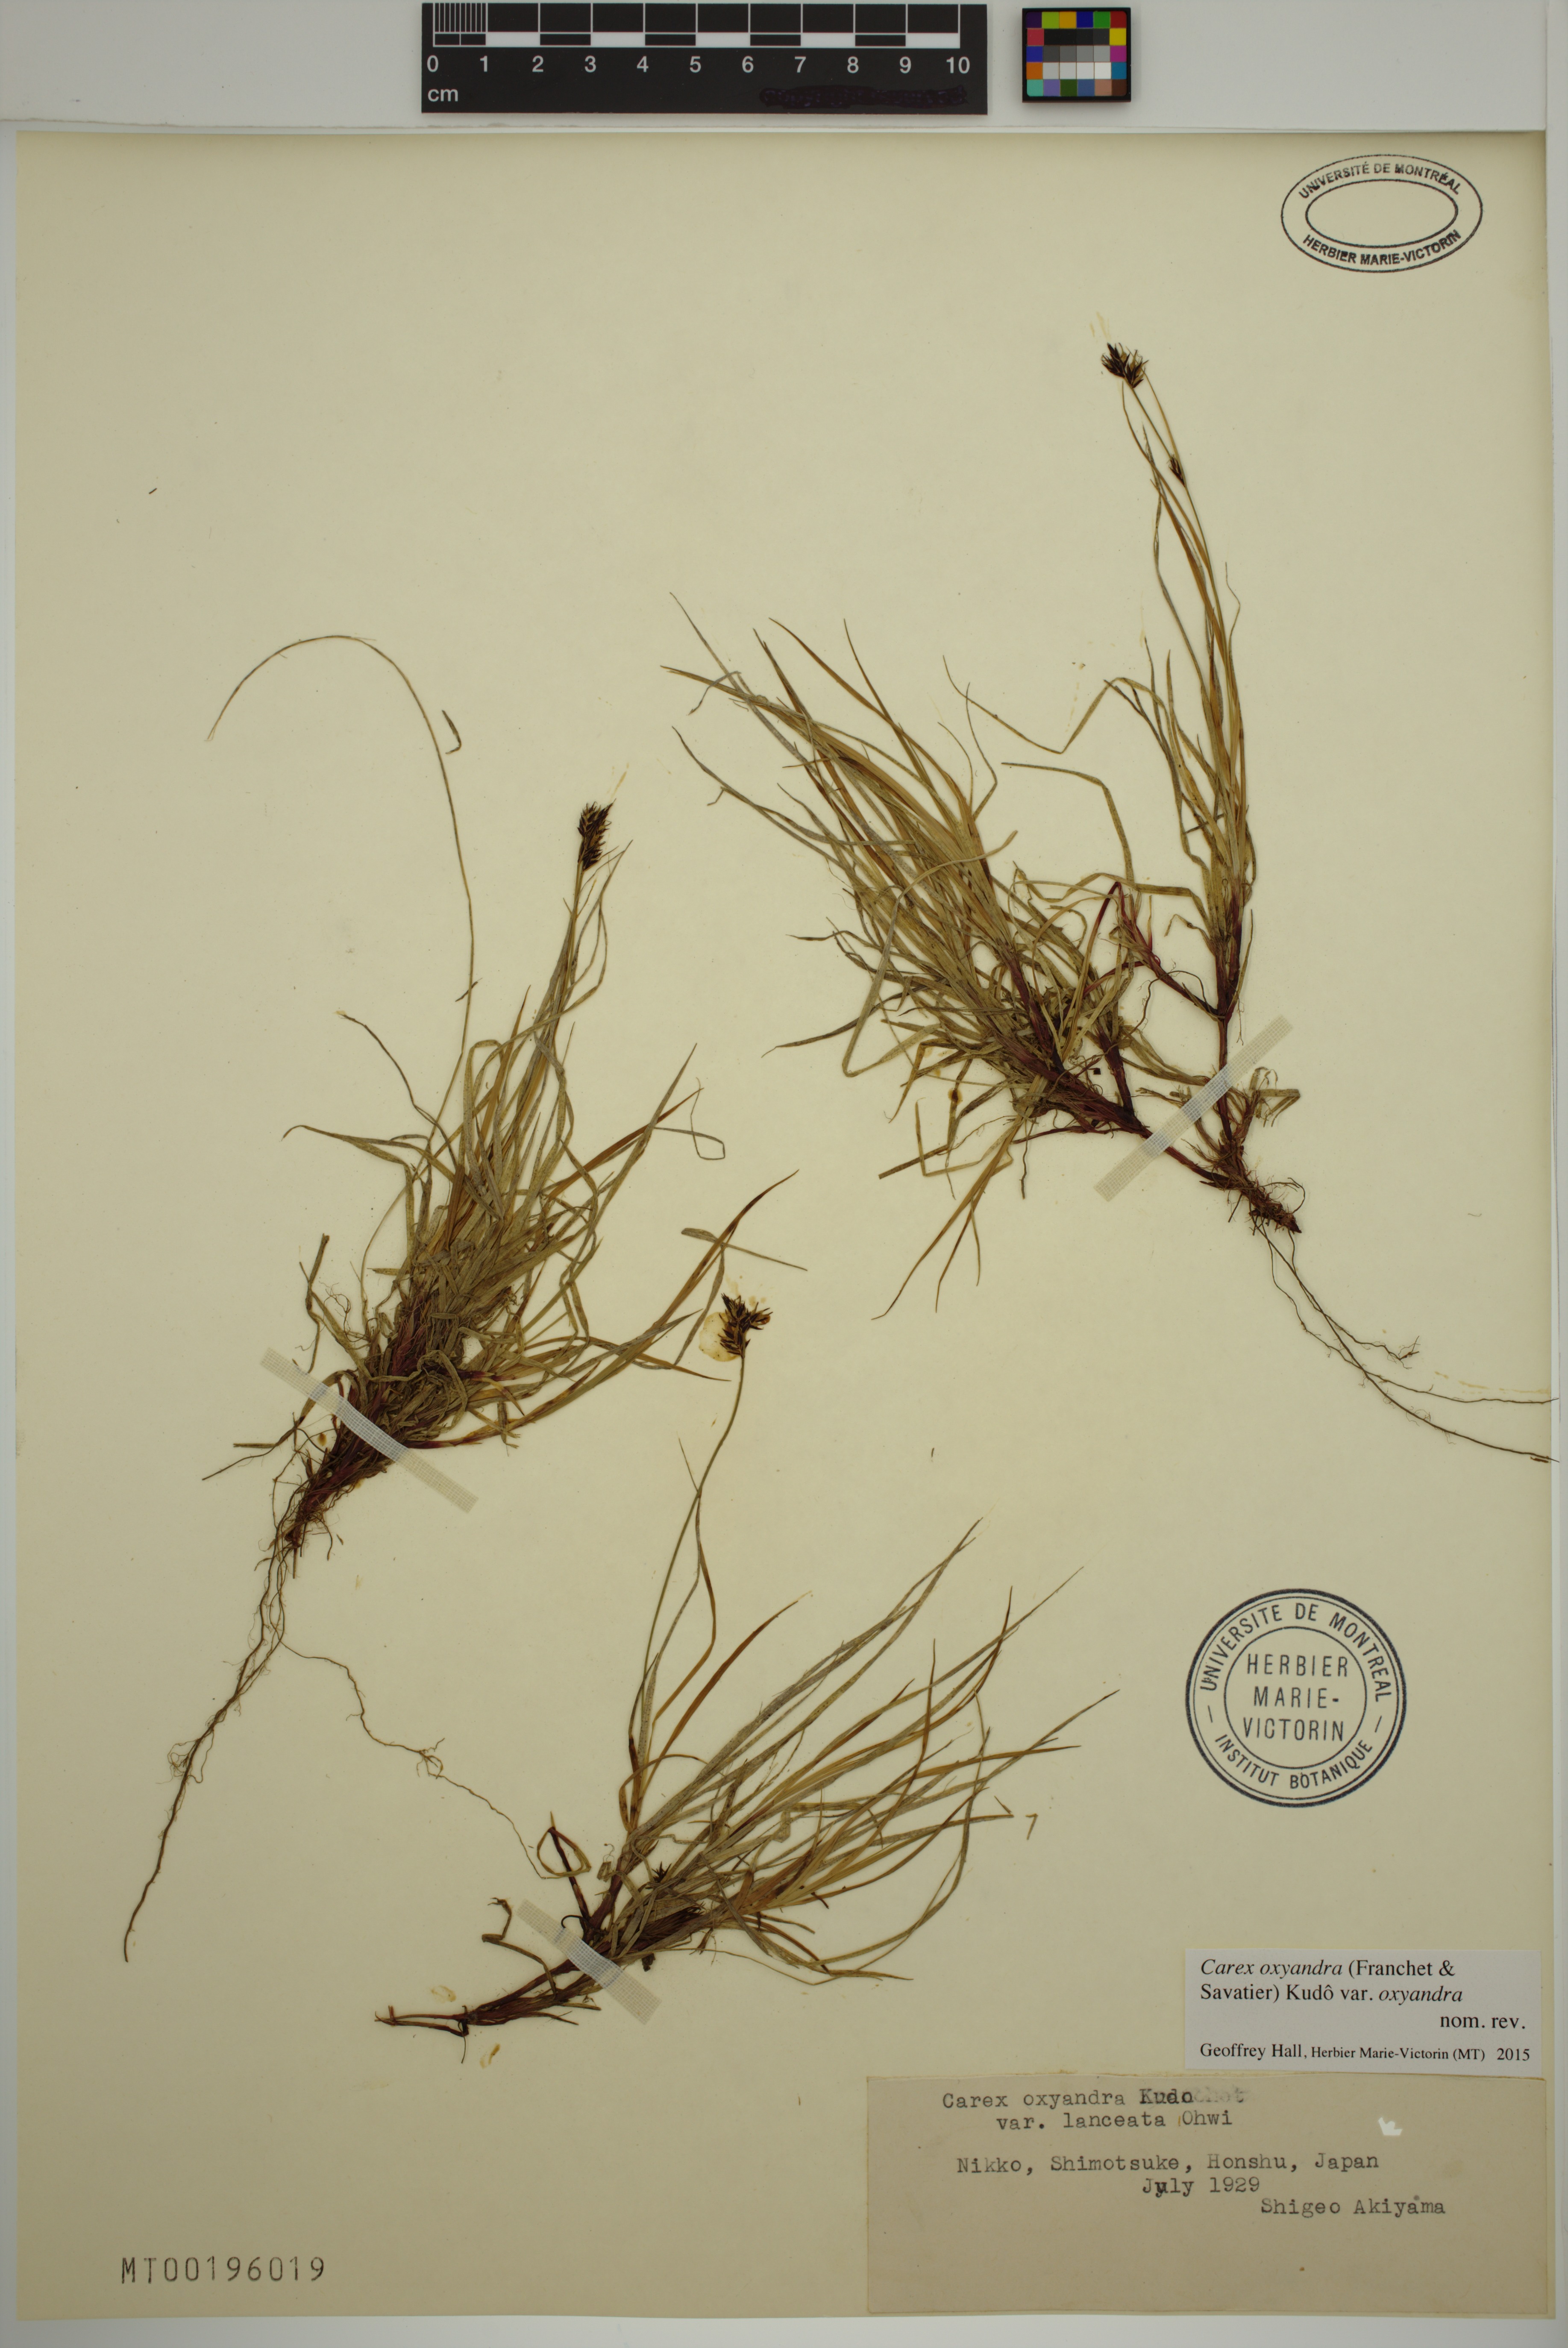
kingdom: Plantae
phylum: Tracheophyta
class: Liliopsida
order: Poales
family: Cyperaceae
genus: Carex
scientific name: Carex oxyandra
